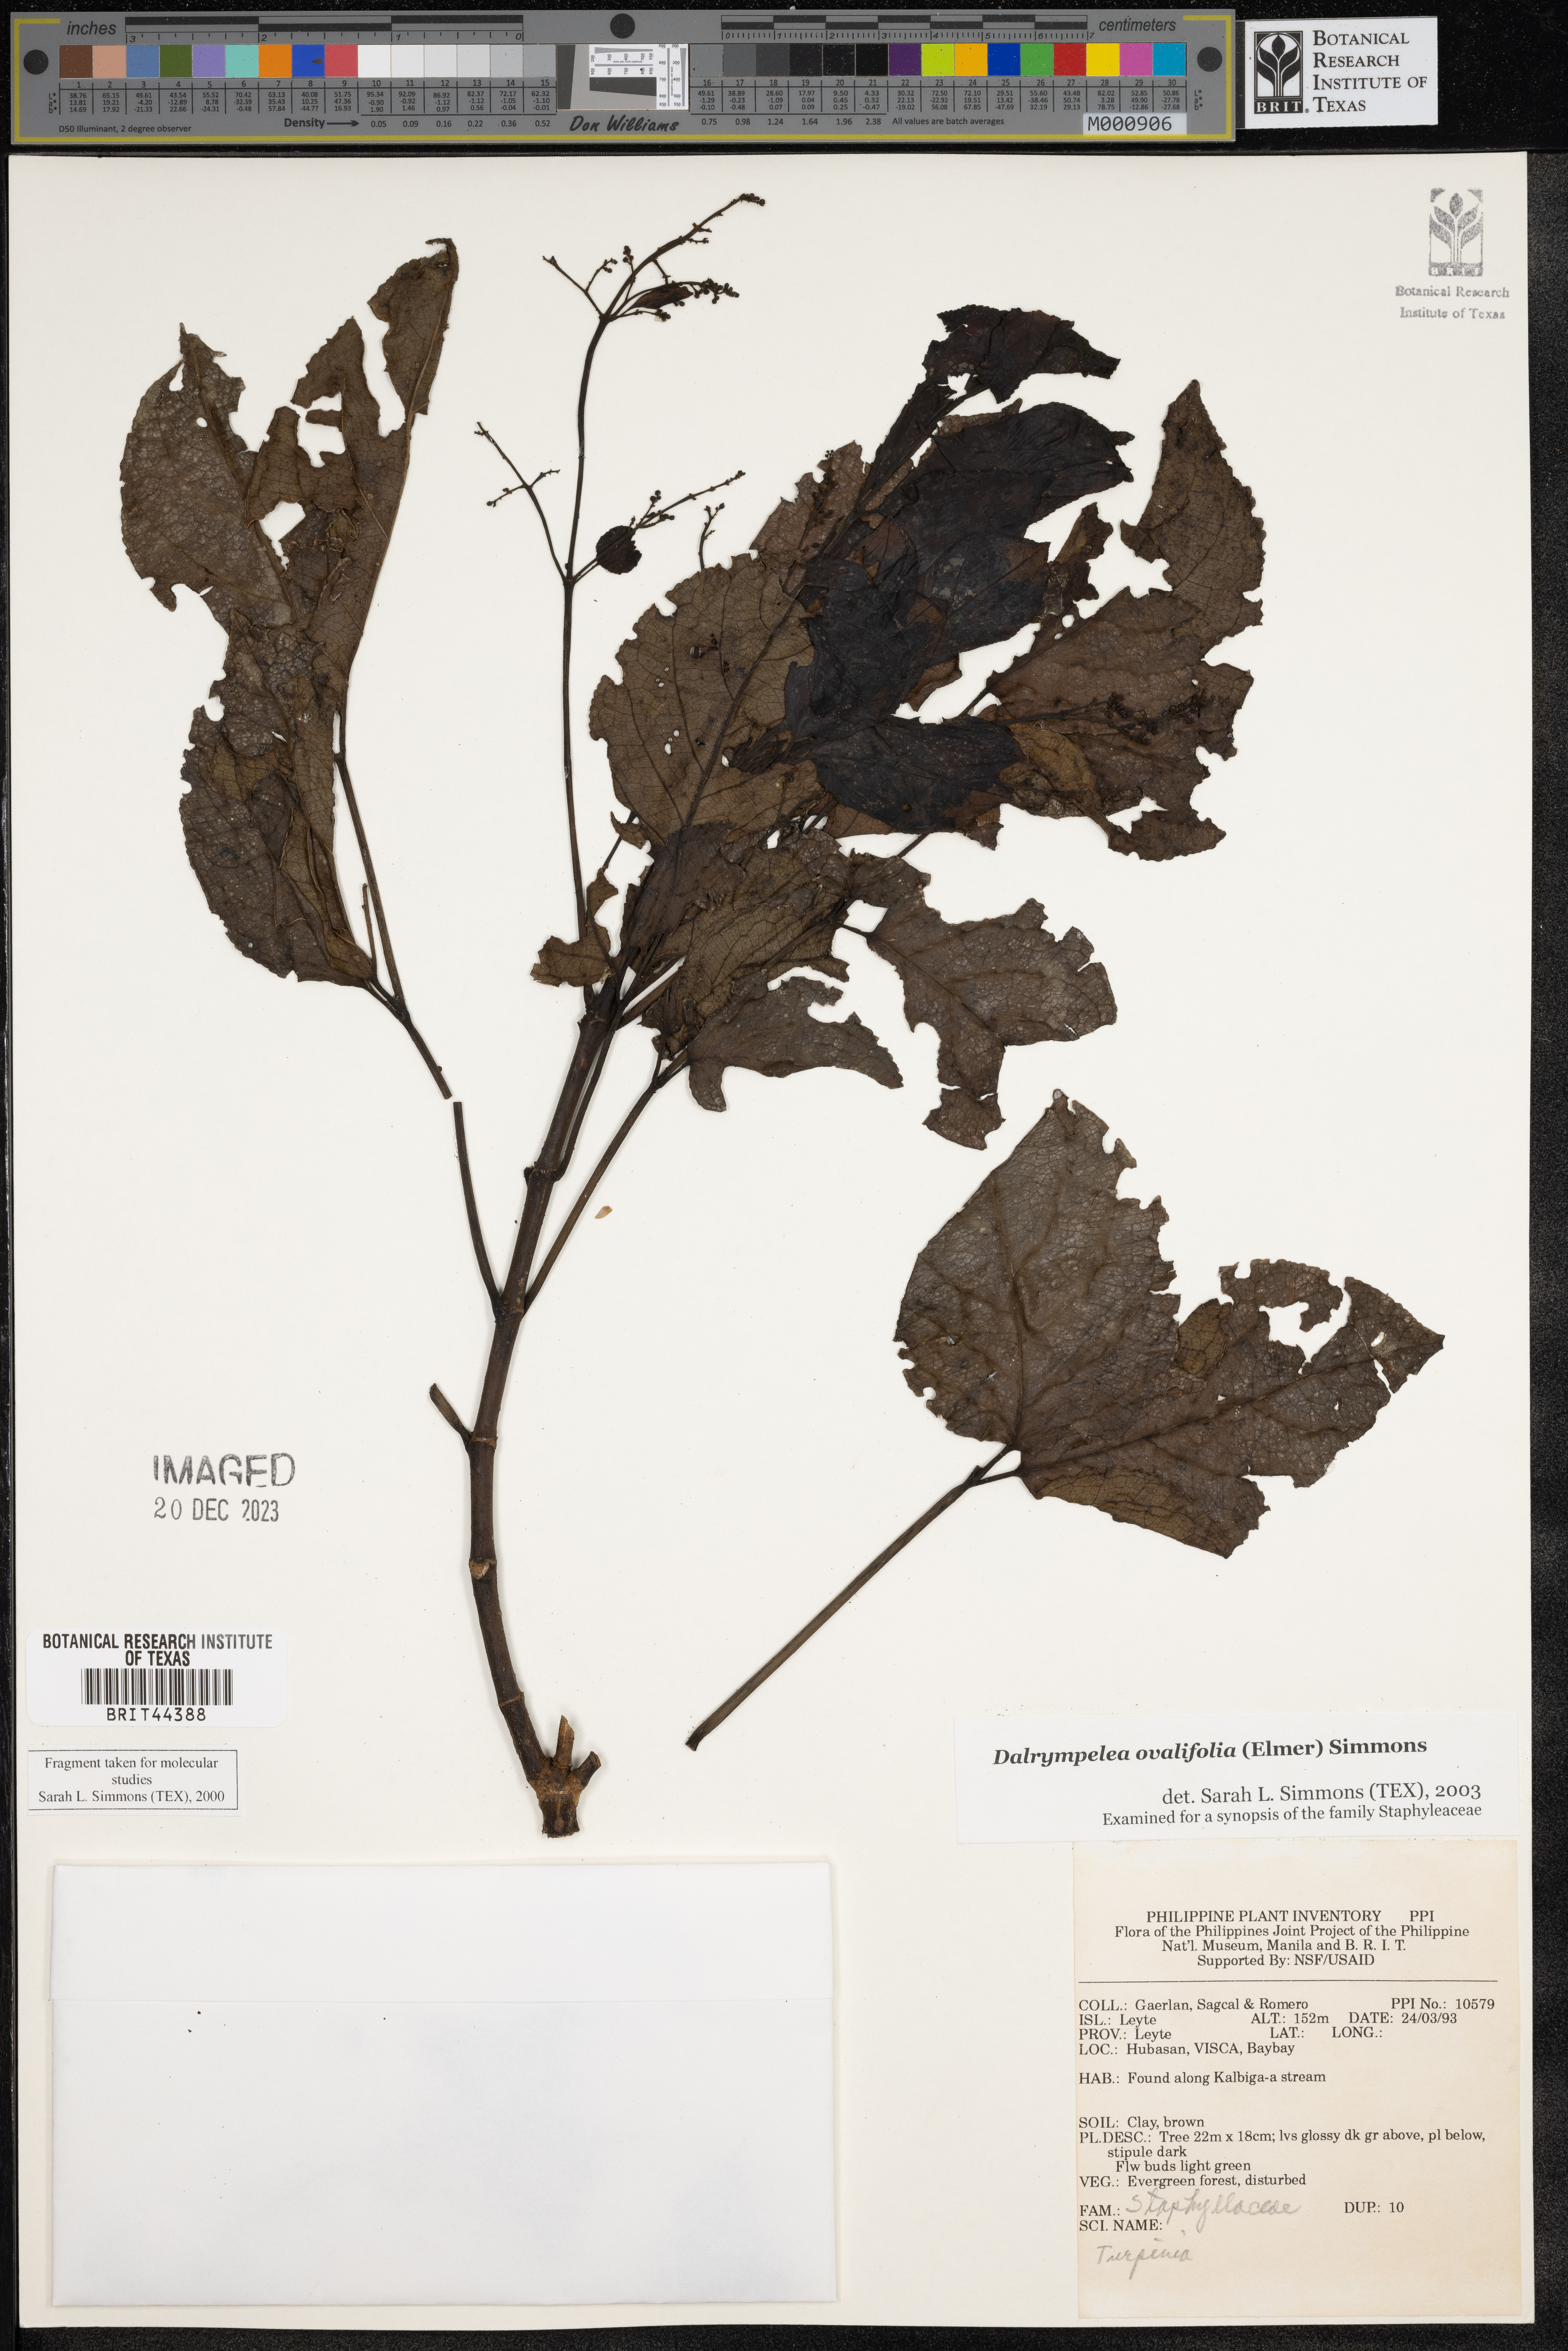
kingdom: Plantae
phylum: Tracheophyta
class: Magnoliopsida
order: Crossosomatales
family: Staphyleaceae
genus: Dalrympelea
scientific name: Dalrympelea
